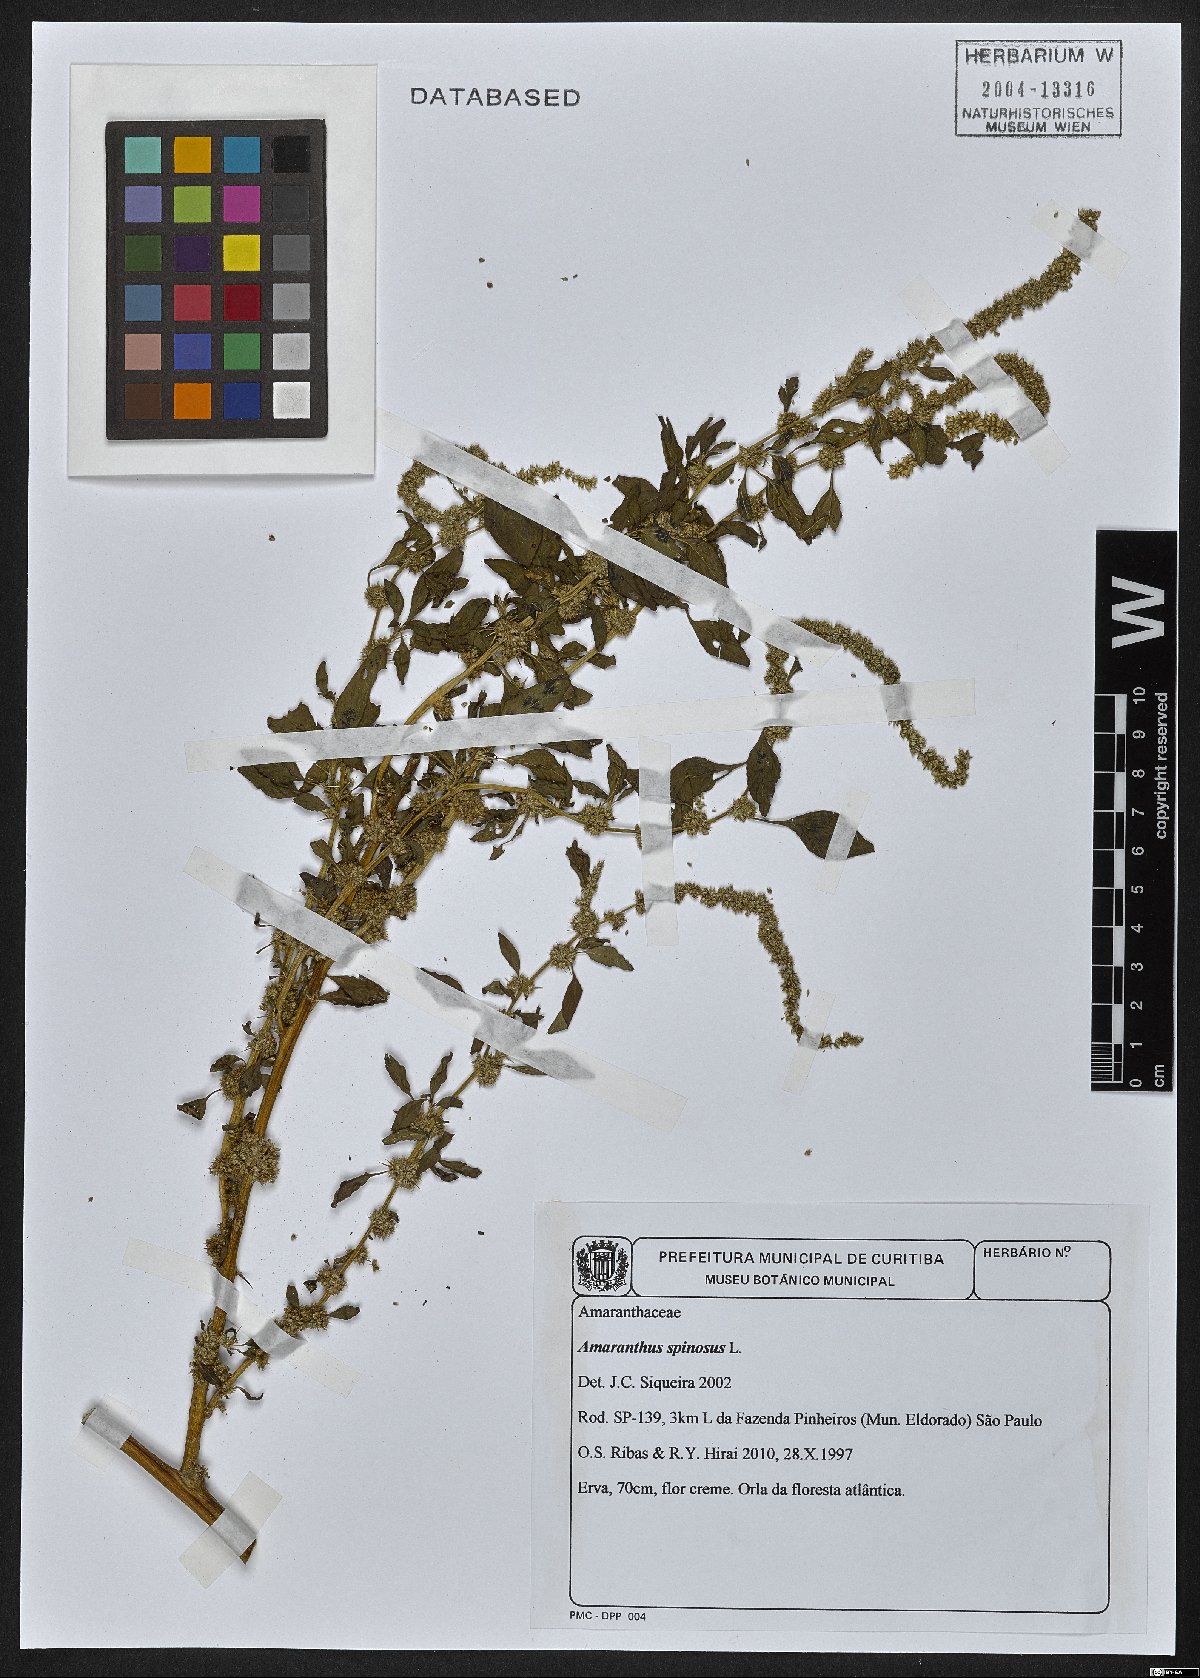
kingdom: Plantae
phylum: Tracheophyta
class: Magnoliopsida
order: Caryophyllales
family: Amaranthaceae
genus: Amaranthus
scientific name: Amaranthus spinosus
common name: Spiny amaranth
